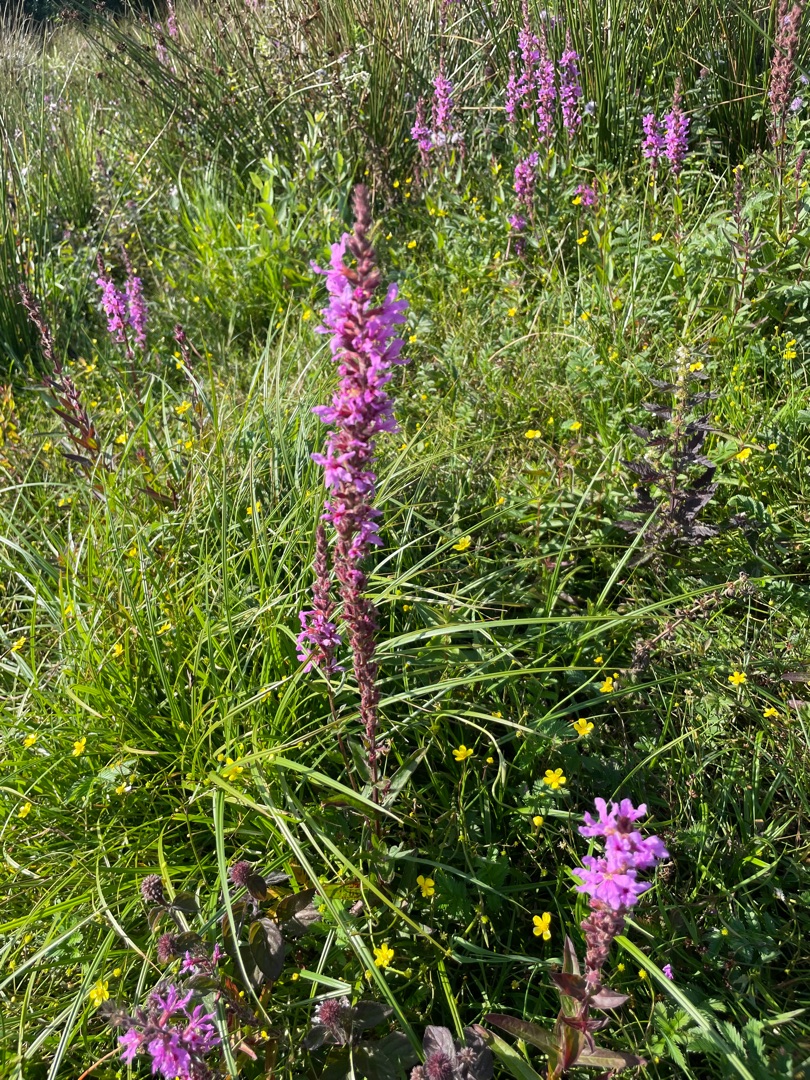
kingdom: Plantae
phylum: Tracheophyta
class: Magnoliopsida
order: Myrtales
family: Lythraceae
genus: Lythrum
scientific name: Lythrum salicaria
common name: Kattehale
